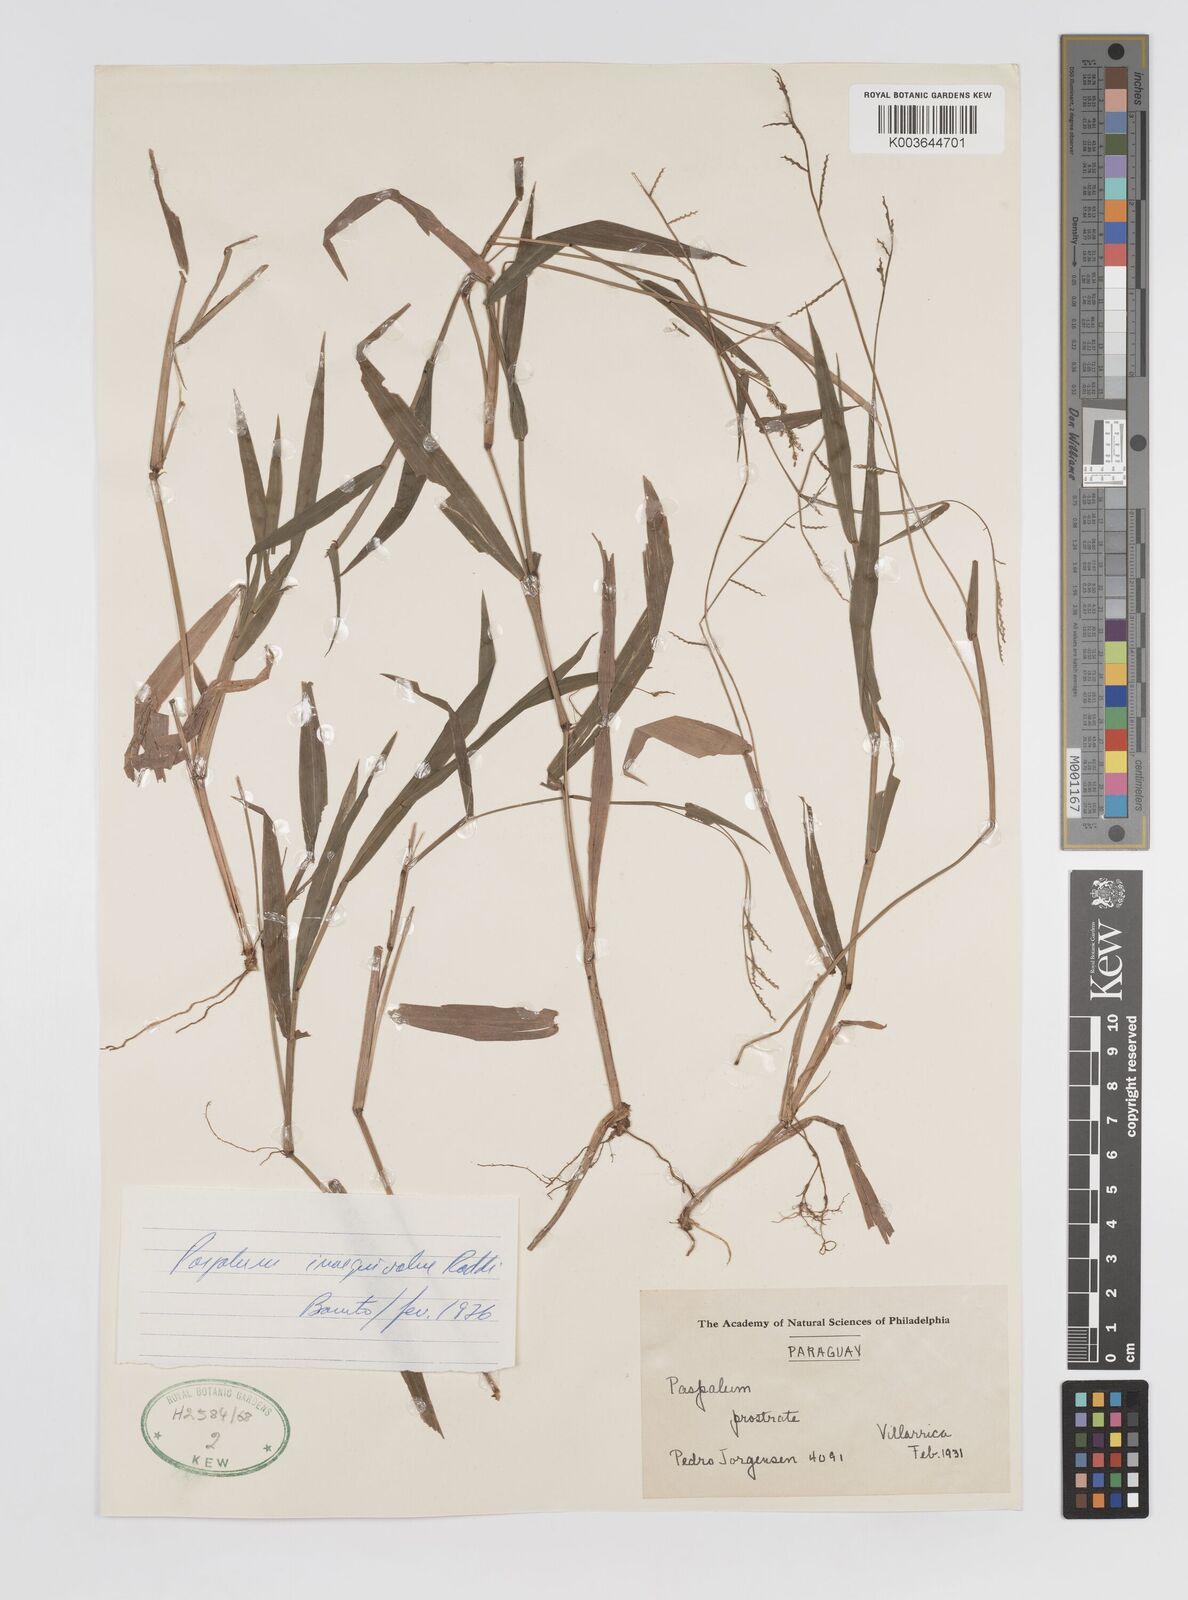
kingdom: Plantae
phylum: Tracheophyta
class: Liliopsida
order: Poales
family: Poaceae
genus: Paspalum
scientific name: Paspalum inaequivalve
